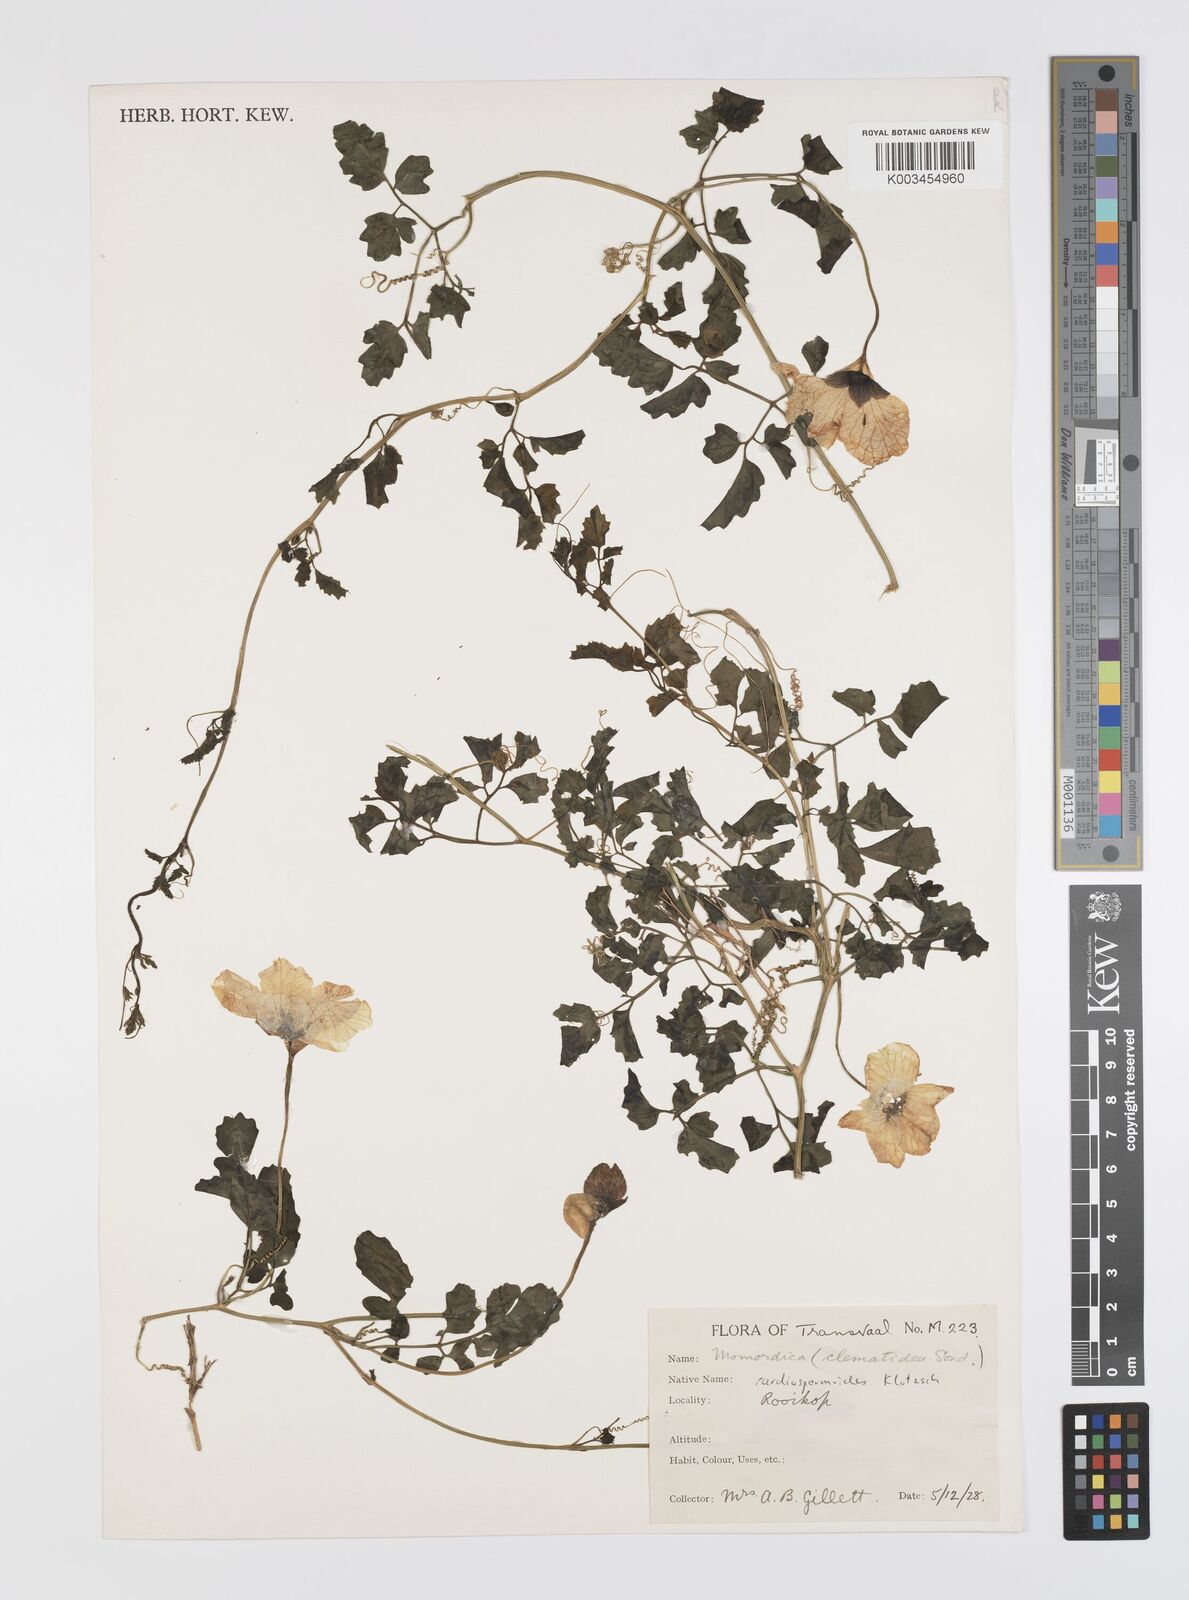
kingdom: Plantae
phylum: Tracheophyta
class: Magnoliopsida
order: Cucurbitales
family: Cucurbitaceae
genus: Momordica
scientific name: Momordica cardiospermoides
